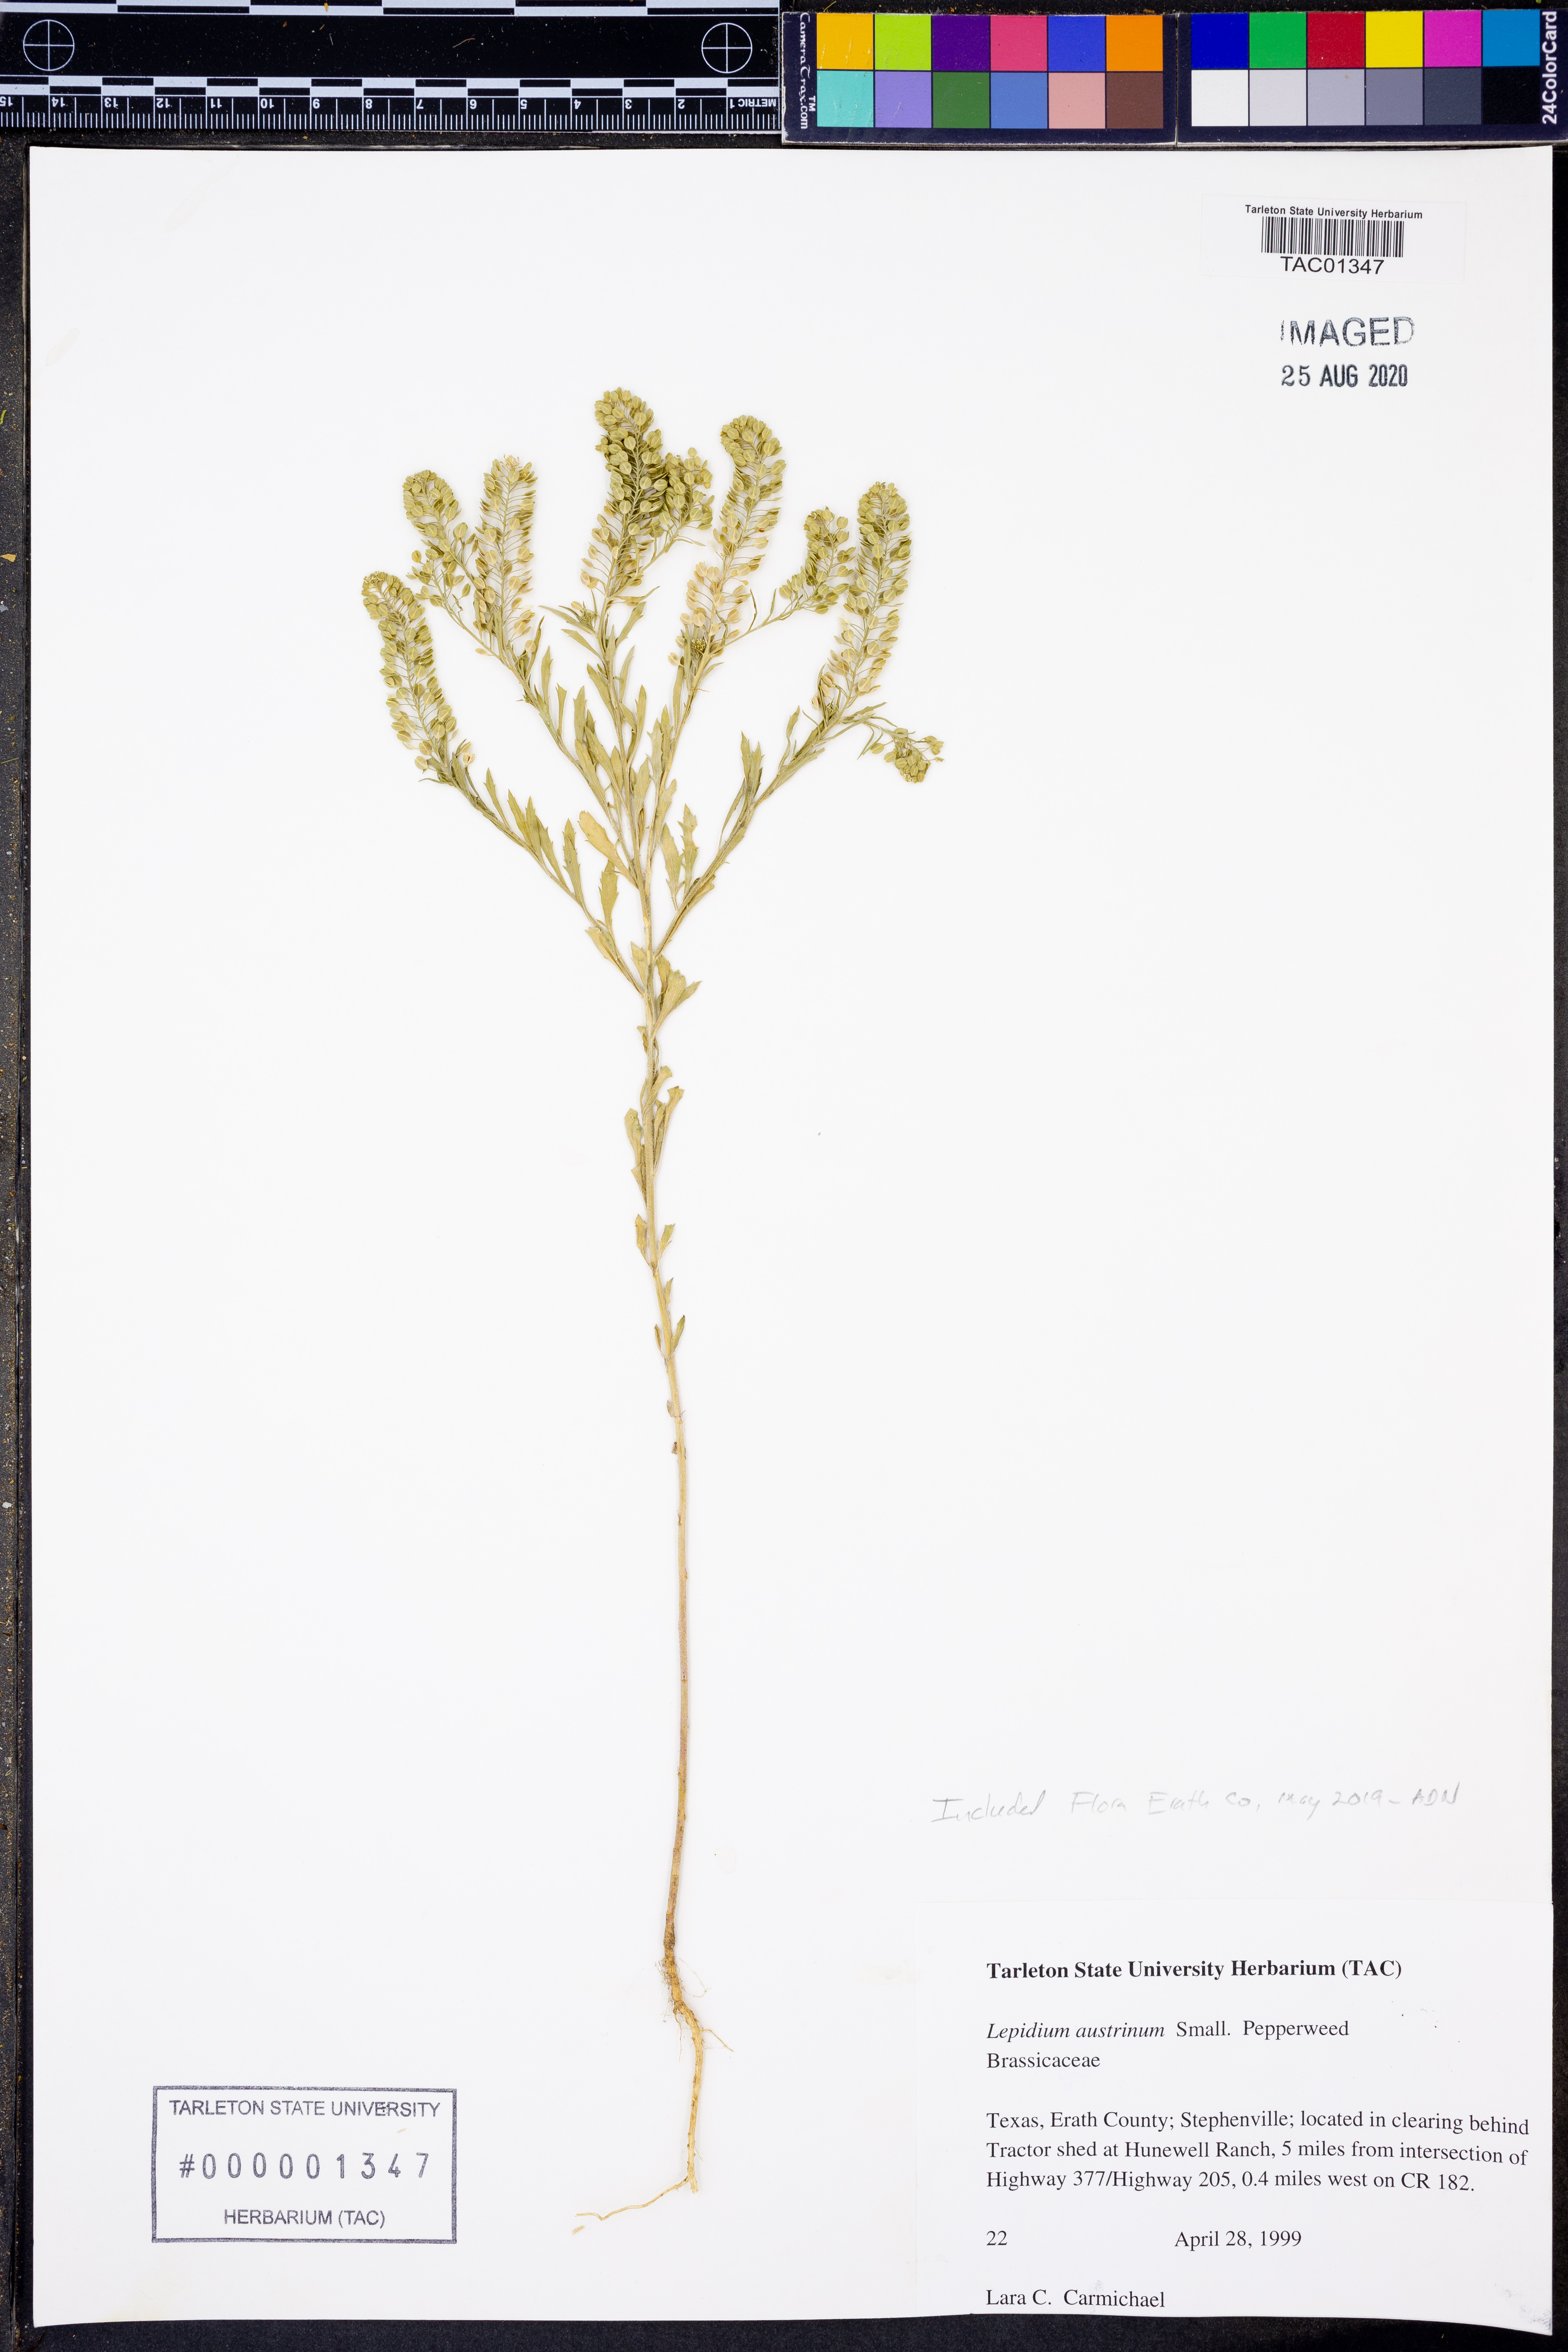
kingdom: Plantae
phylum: Tracheophyta
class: Magnoliopsida
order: Brassicales
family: Brassicaceae
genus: Lepidium
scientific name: Lepidium austrinum
